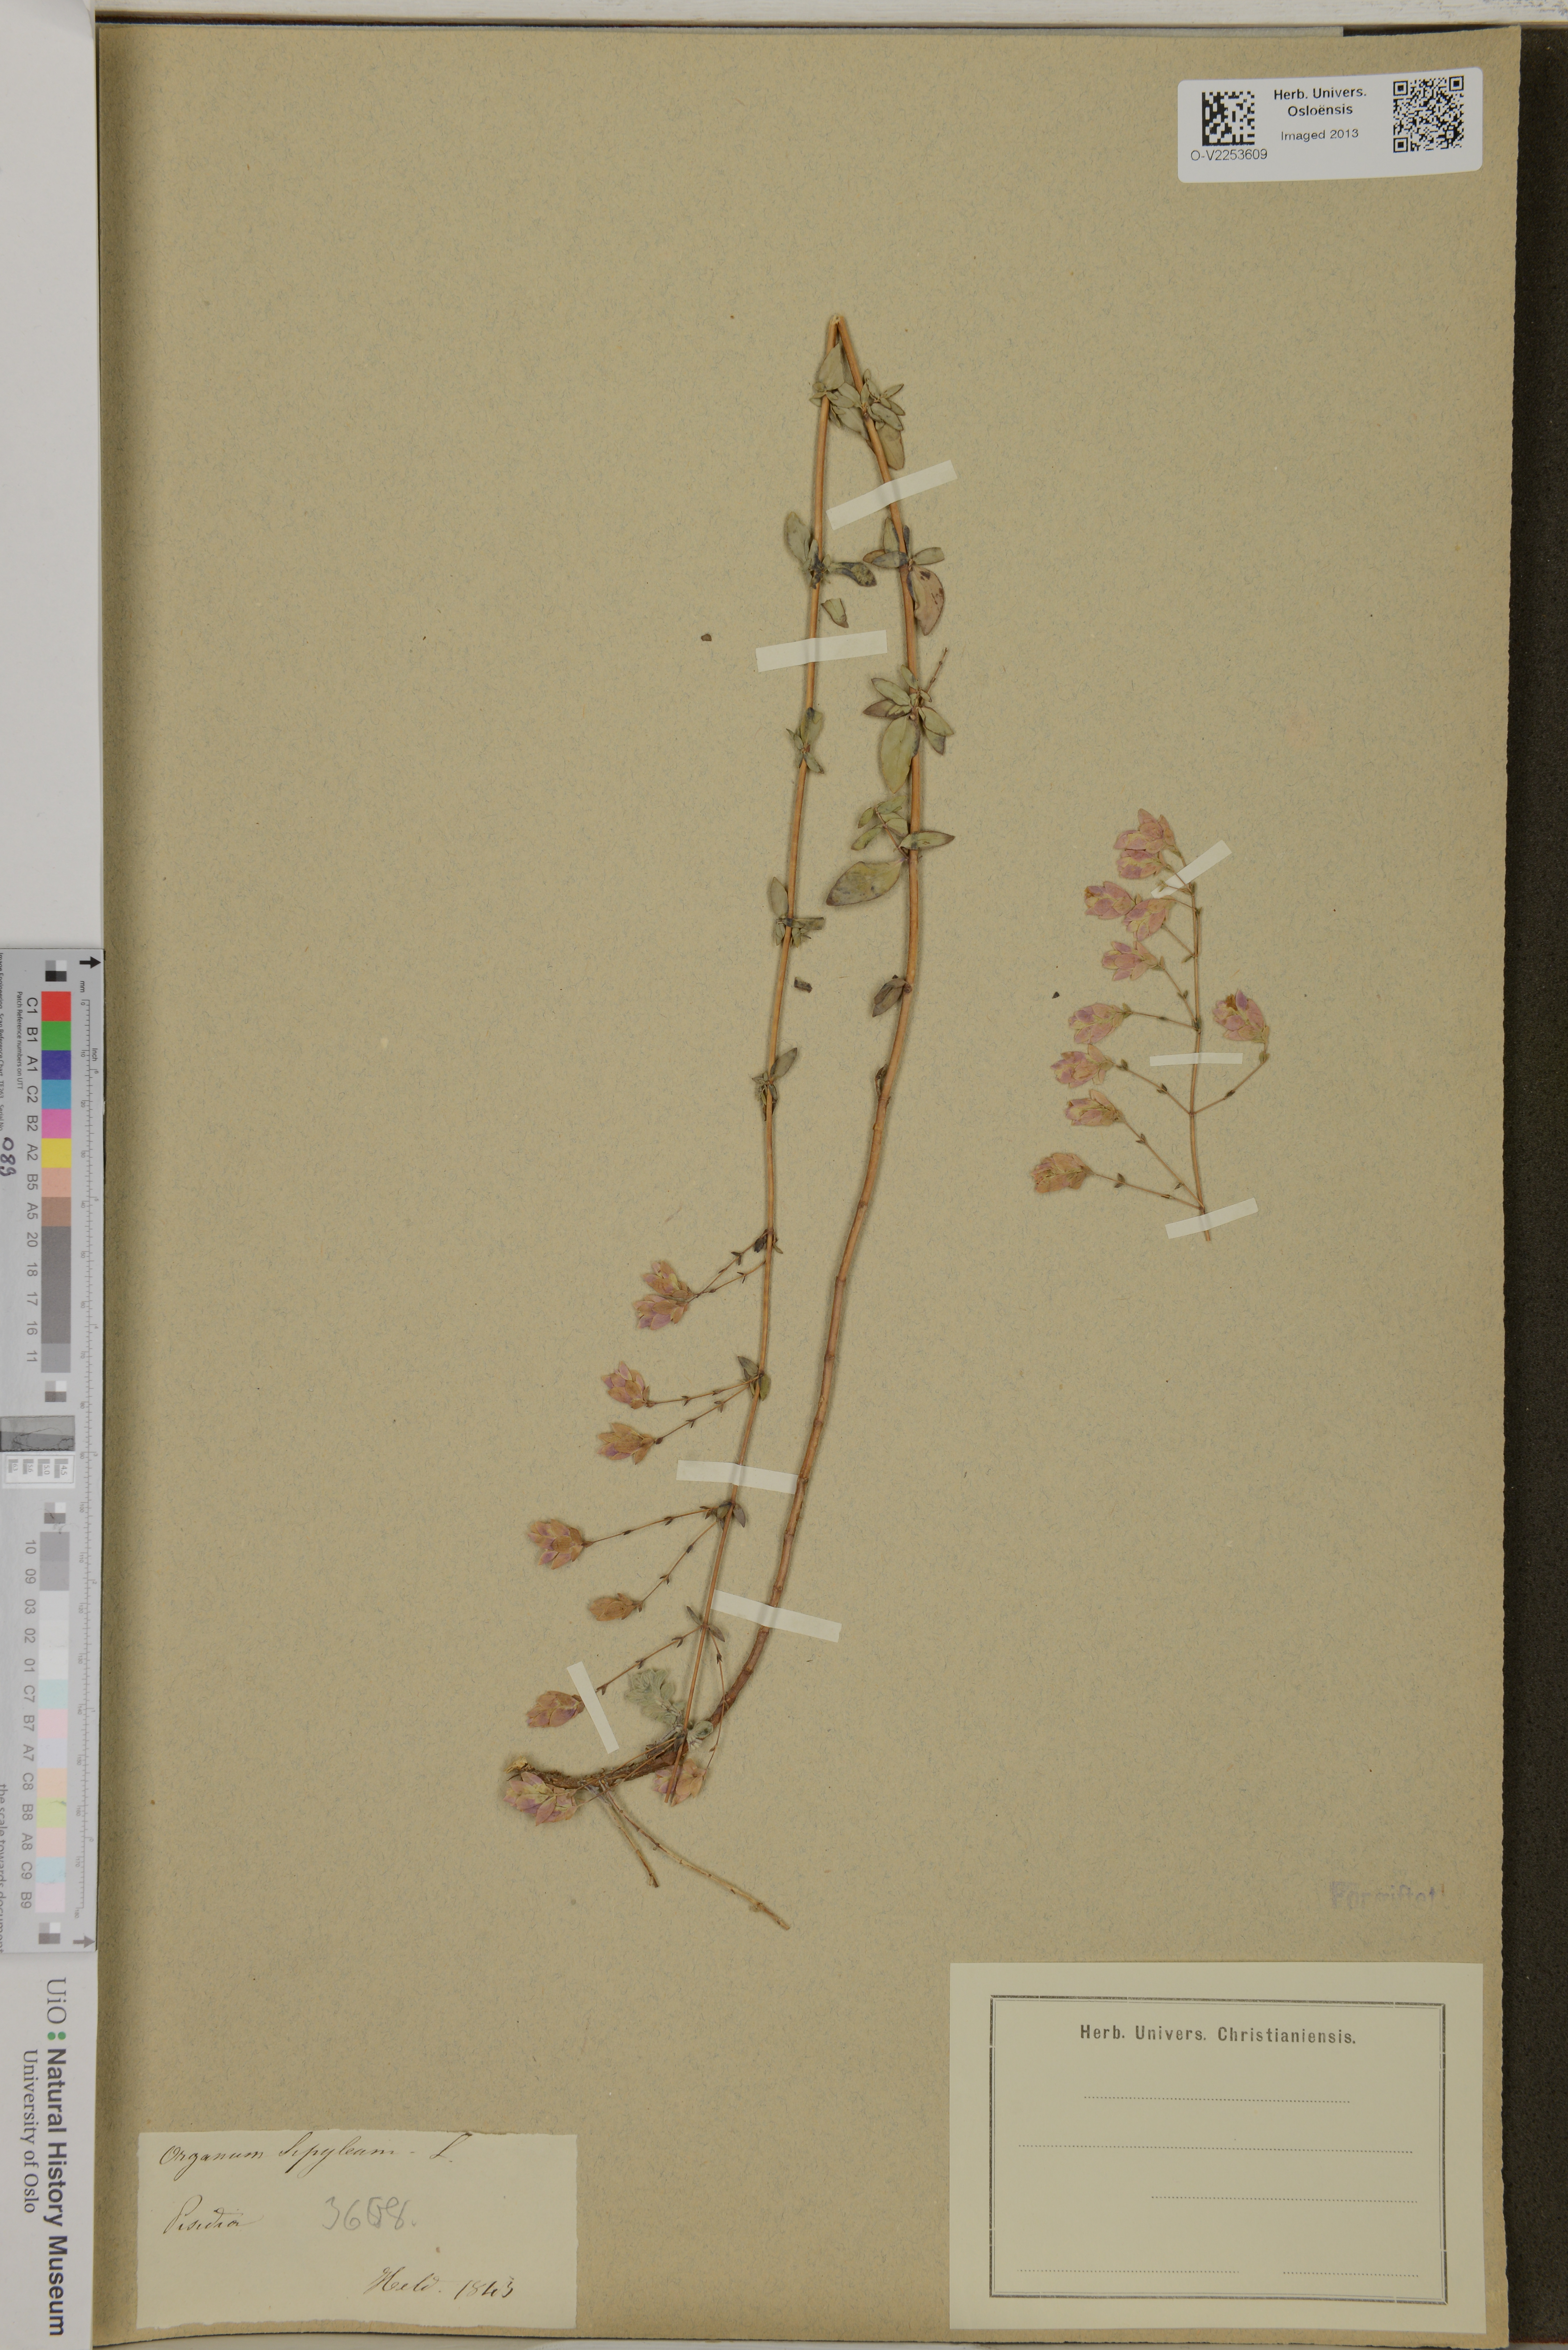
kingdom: Plantae
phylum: Tracheophyta
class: Magnoliopsida
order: Lamiales
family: Lamiaceae
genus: Origanum
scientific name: Origanum sipyleum
